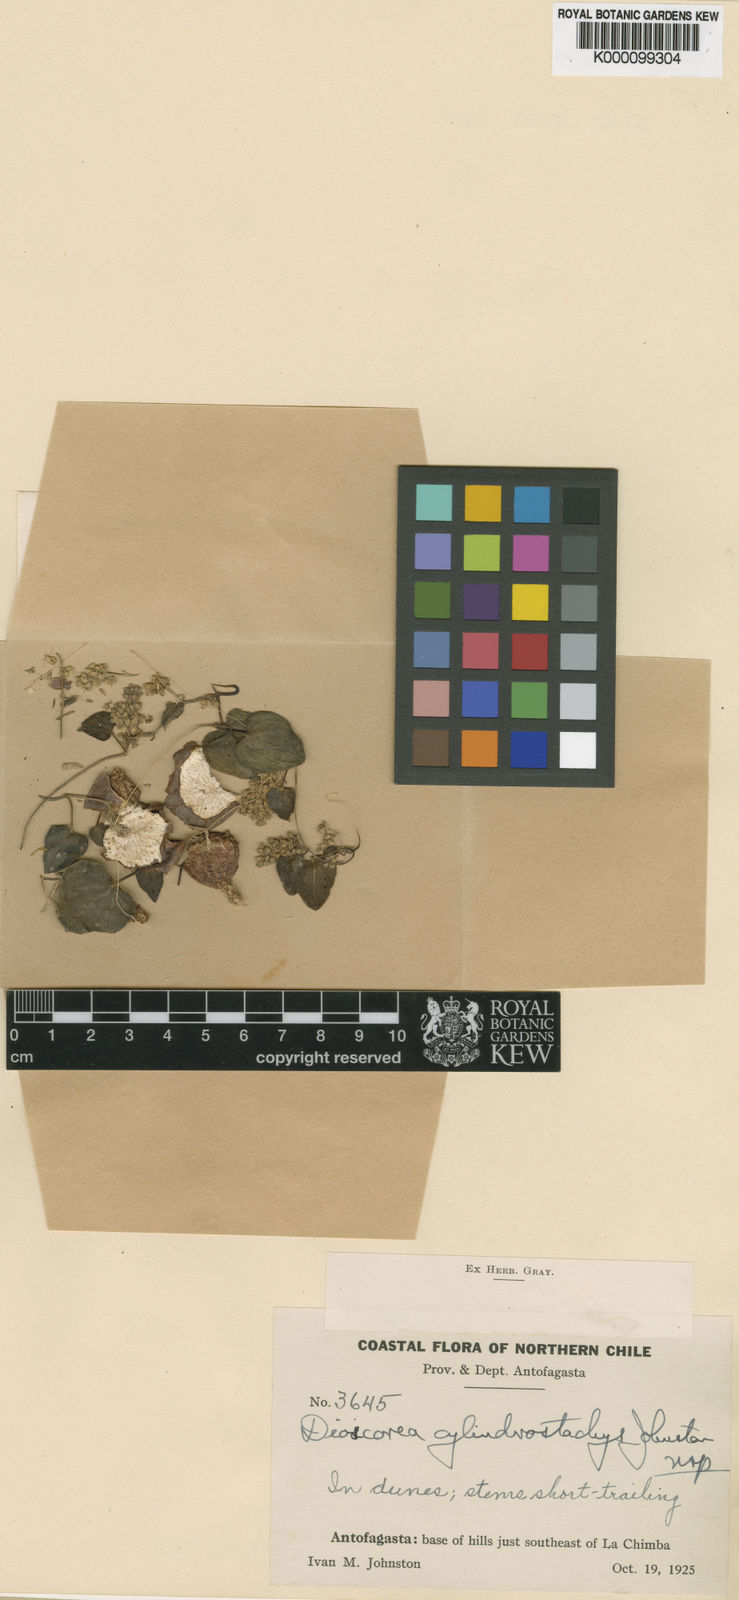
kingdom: Plantae
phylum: Tracheophyta
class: Liliopsida
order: Dioscoreales
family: Dioscoreaceae
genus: Dioscorea
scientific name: Dioscorea fastigiata
